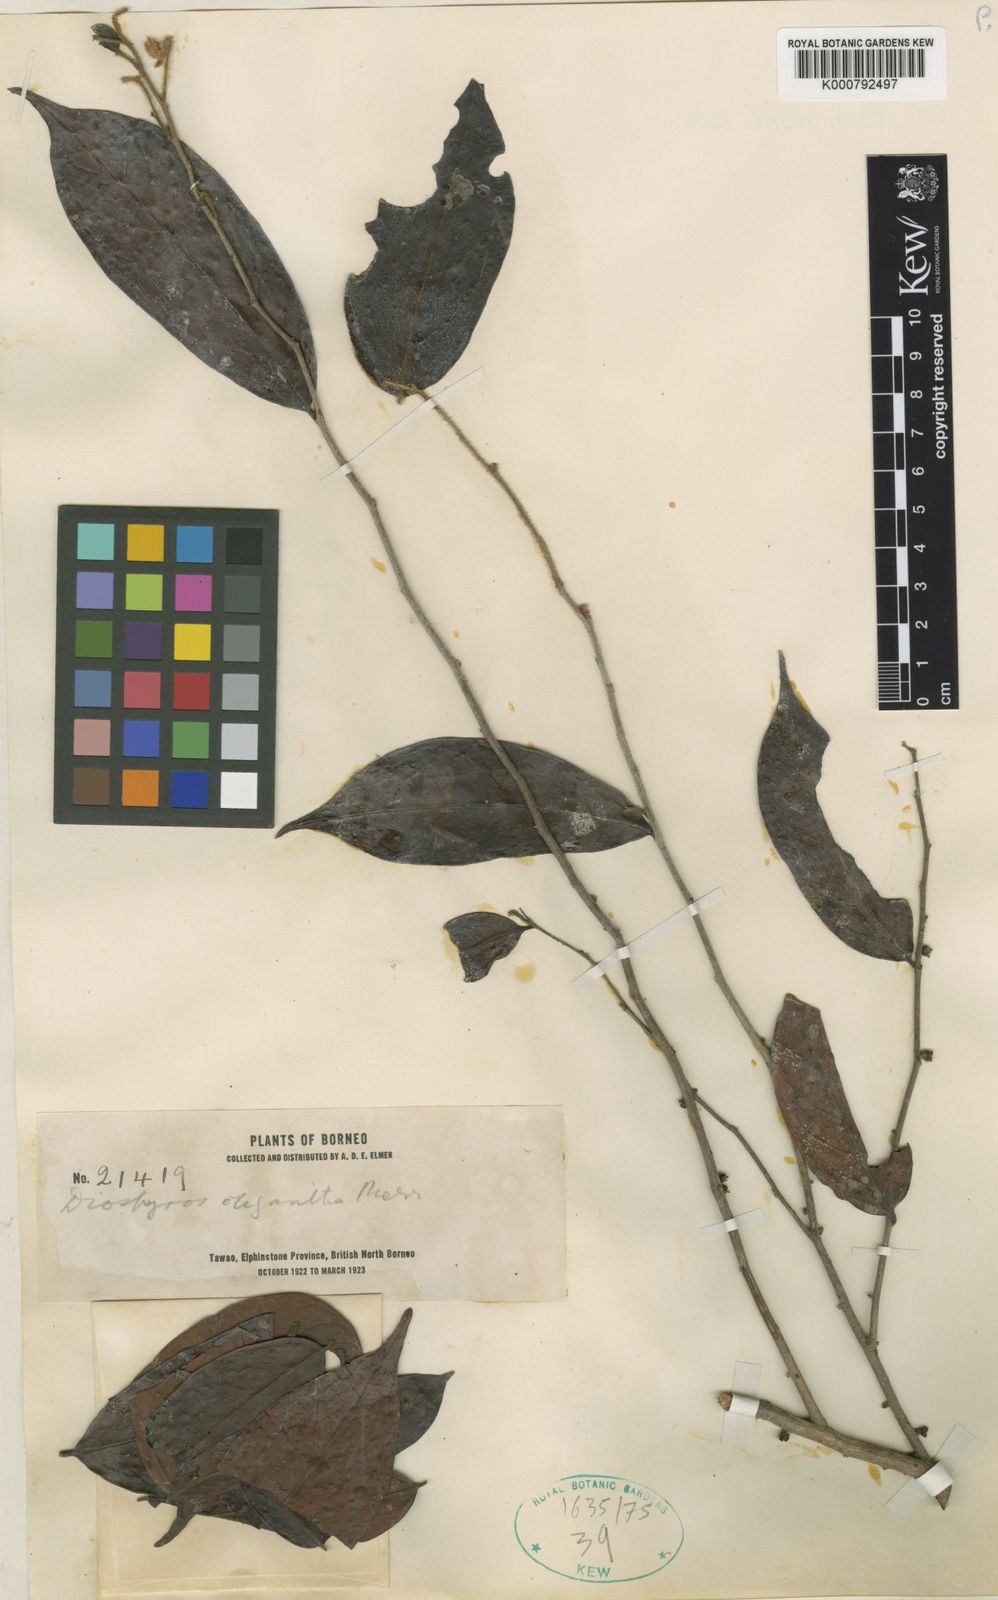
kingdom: Plantae
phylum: Tracheophyta
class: Magnoliopsida
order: Ericales
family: Ebenaceae
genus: Diospyros
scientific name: Diospyros oligantha
